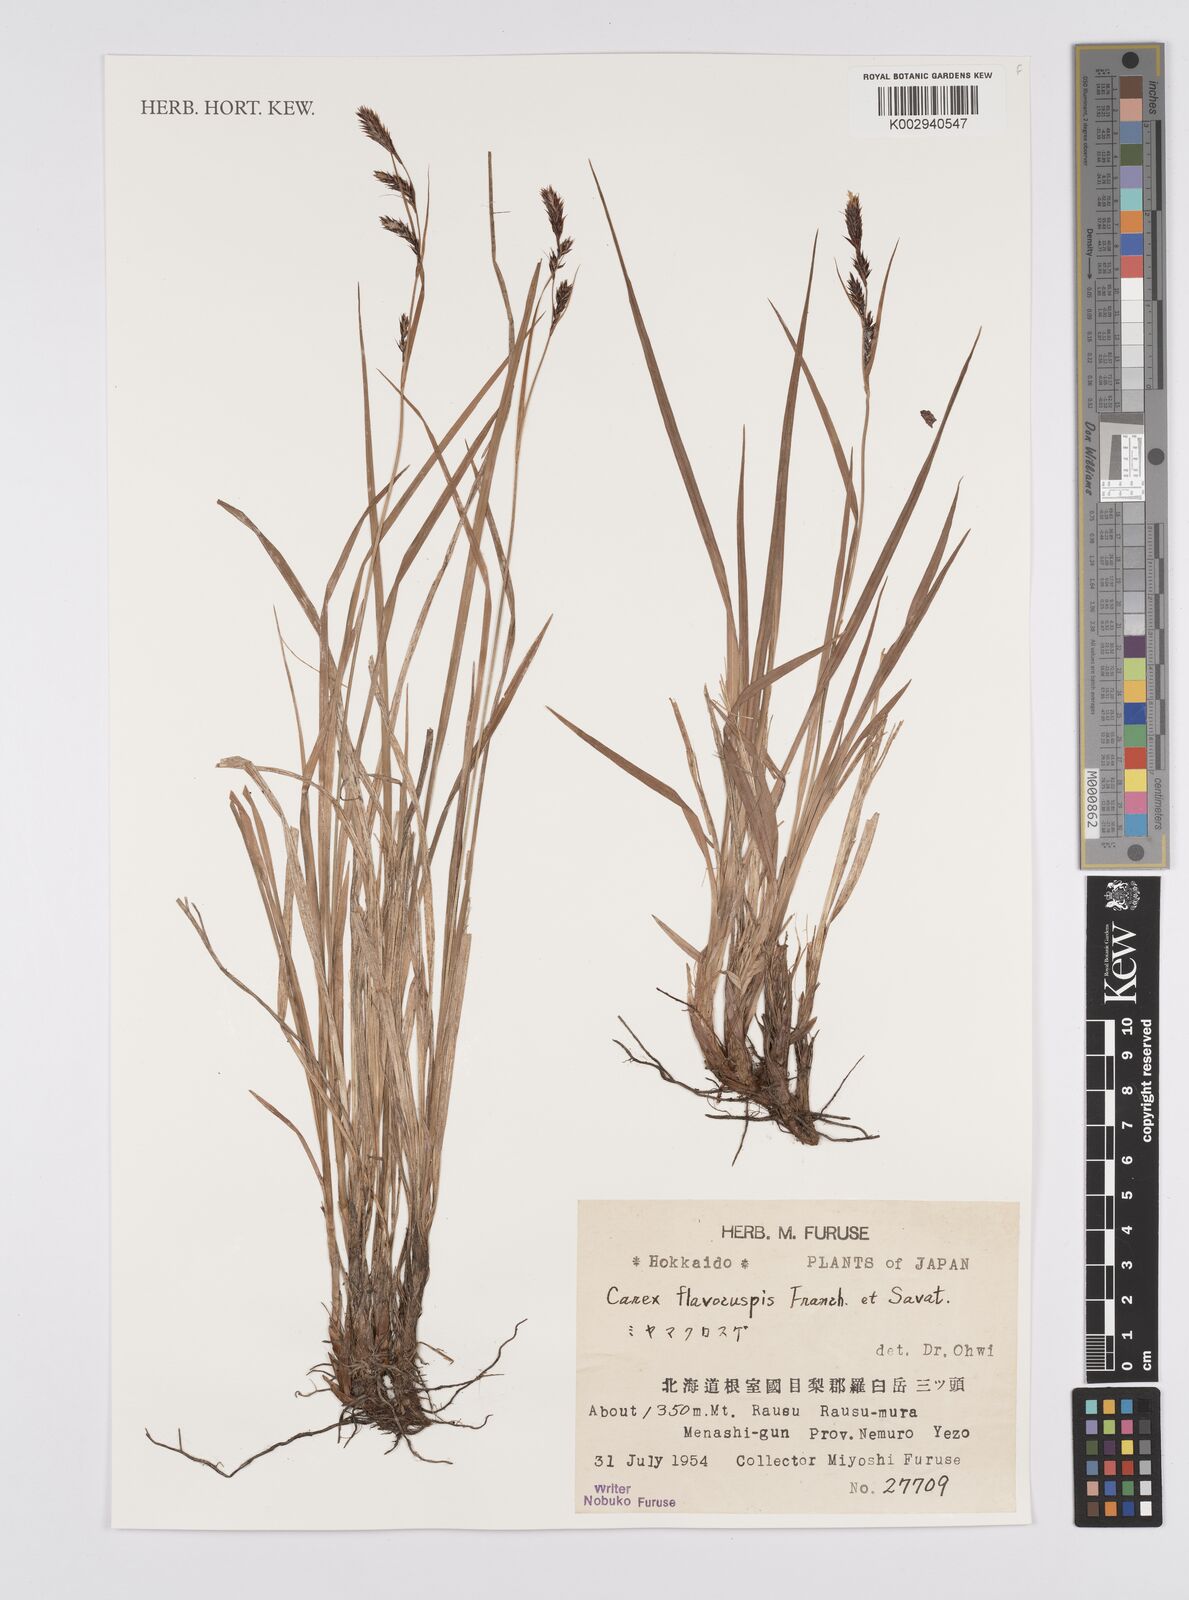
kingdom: Plantae
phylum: Tracheophyta
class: Liliopsida
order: Poales
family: Cyperaceae
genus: Carex
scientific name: Carex flavocuspis
